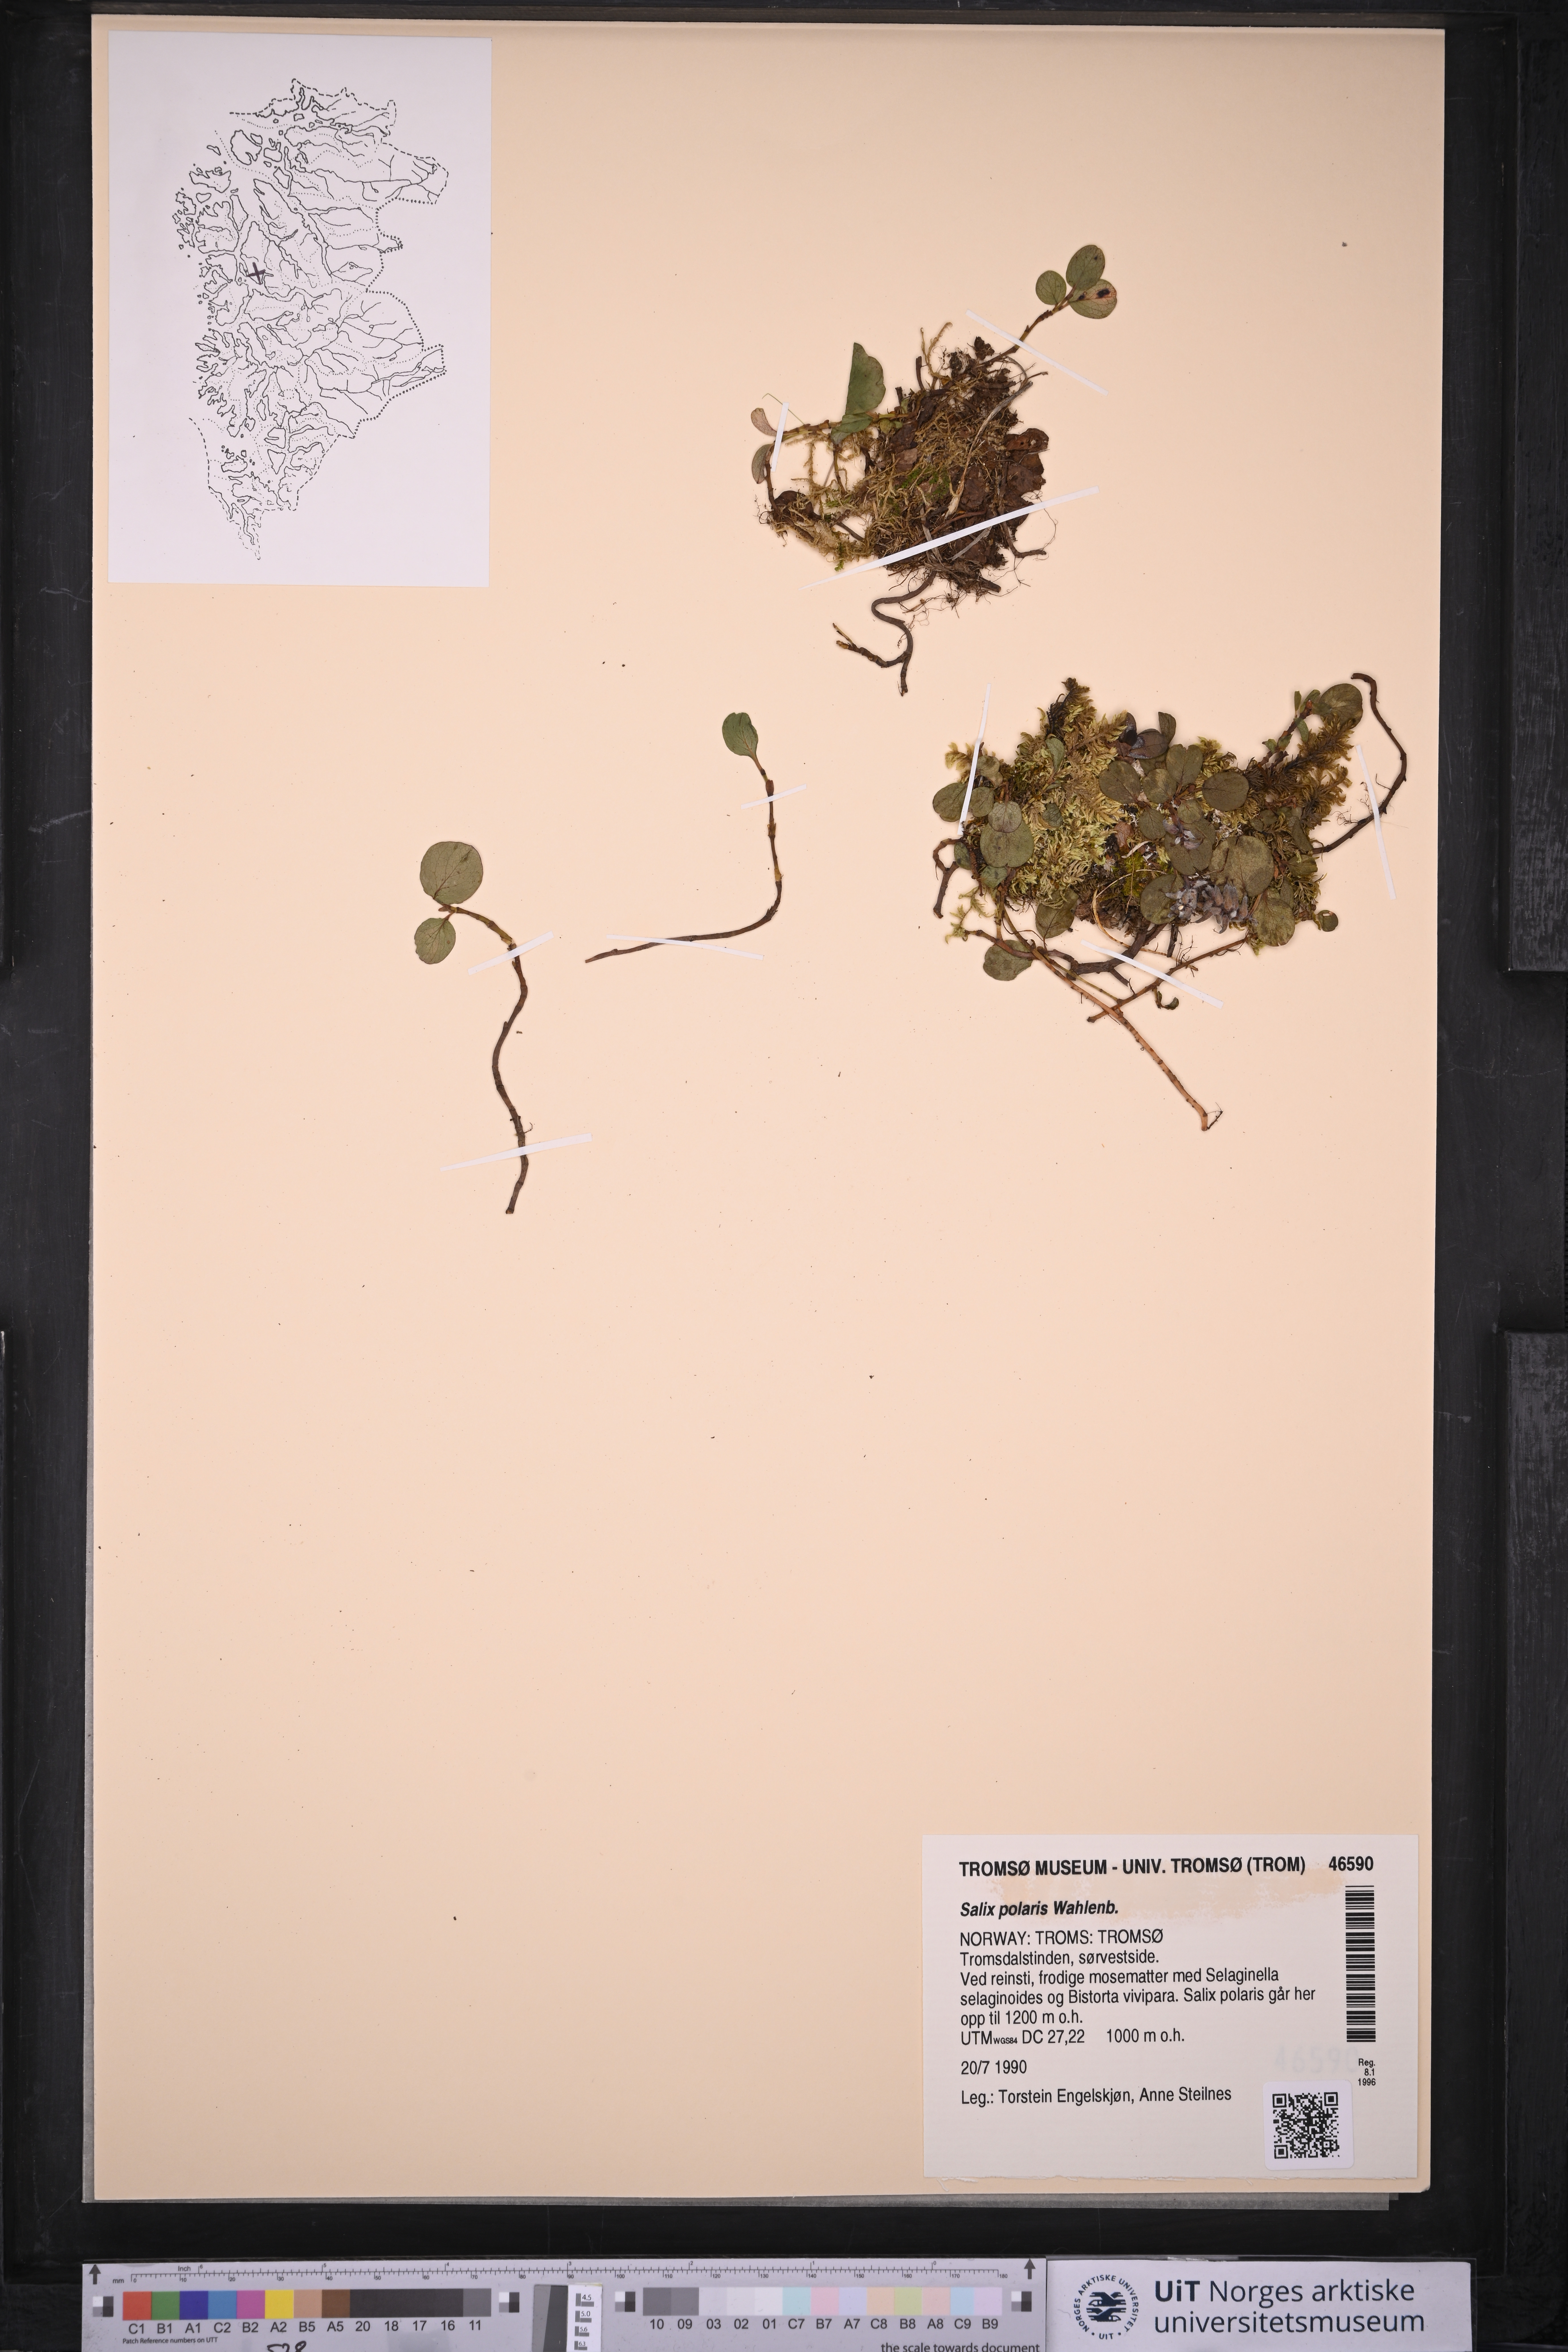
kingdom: Plantae
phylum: Tracheophyta
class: Magnoliopsida
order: Malpighiales
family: Salicaceae
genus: Salix
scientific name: Salix polaris
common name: Polar willow
